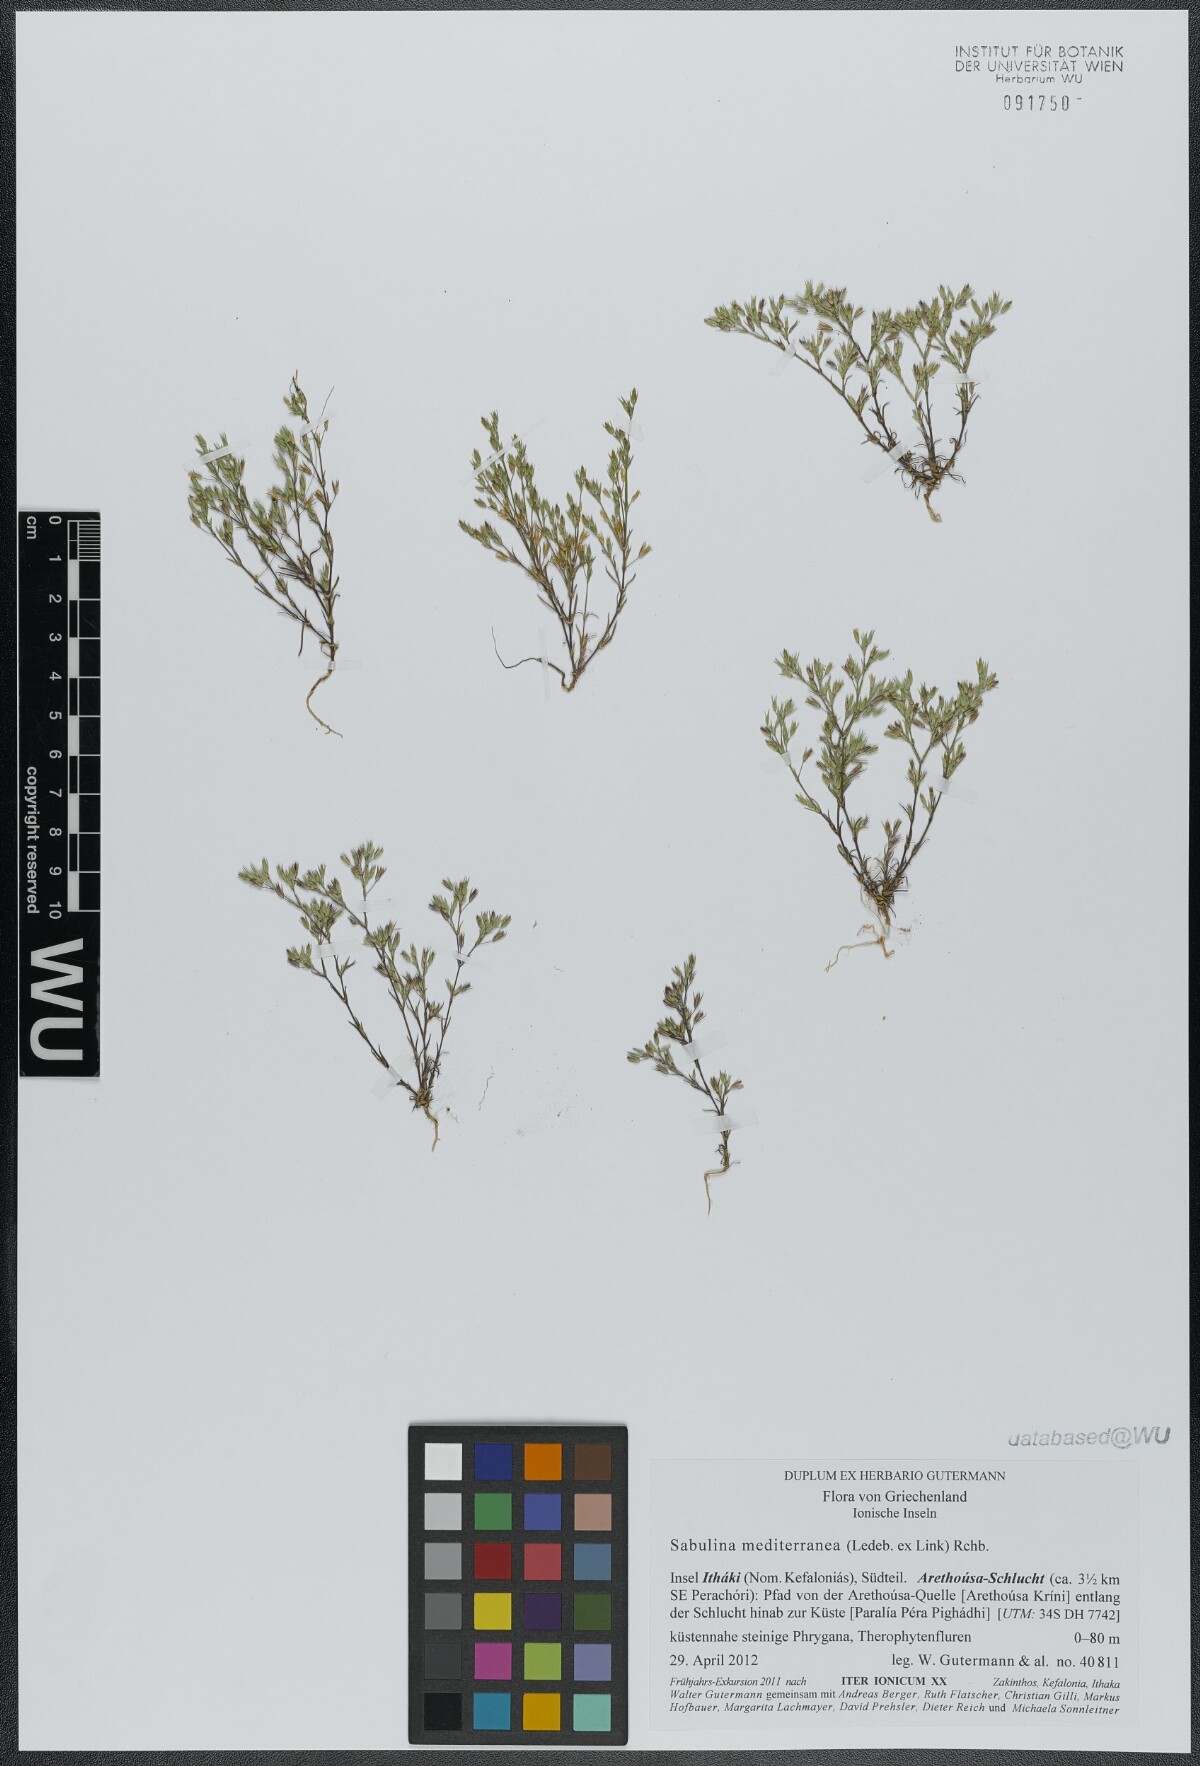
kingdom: Plantae
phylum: Tracheophyta
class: Magnoliopsida
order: Caryophyllales
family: Caryophyllaceae
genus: Sabulina
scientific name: Sabulina mediterranea
